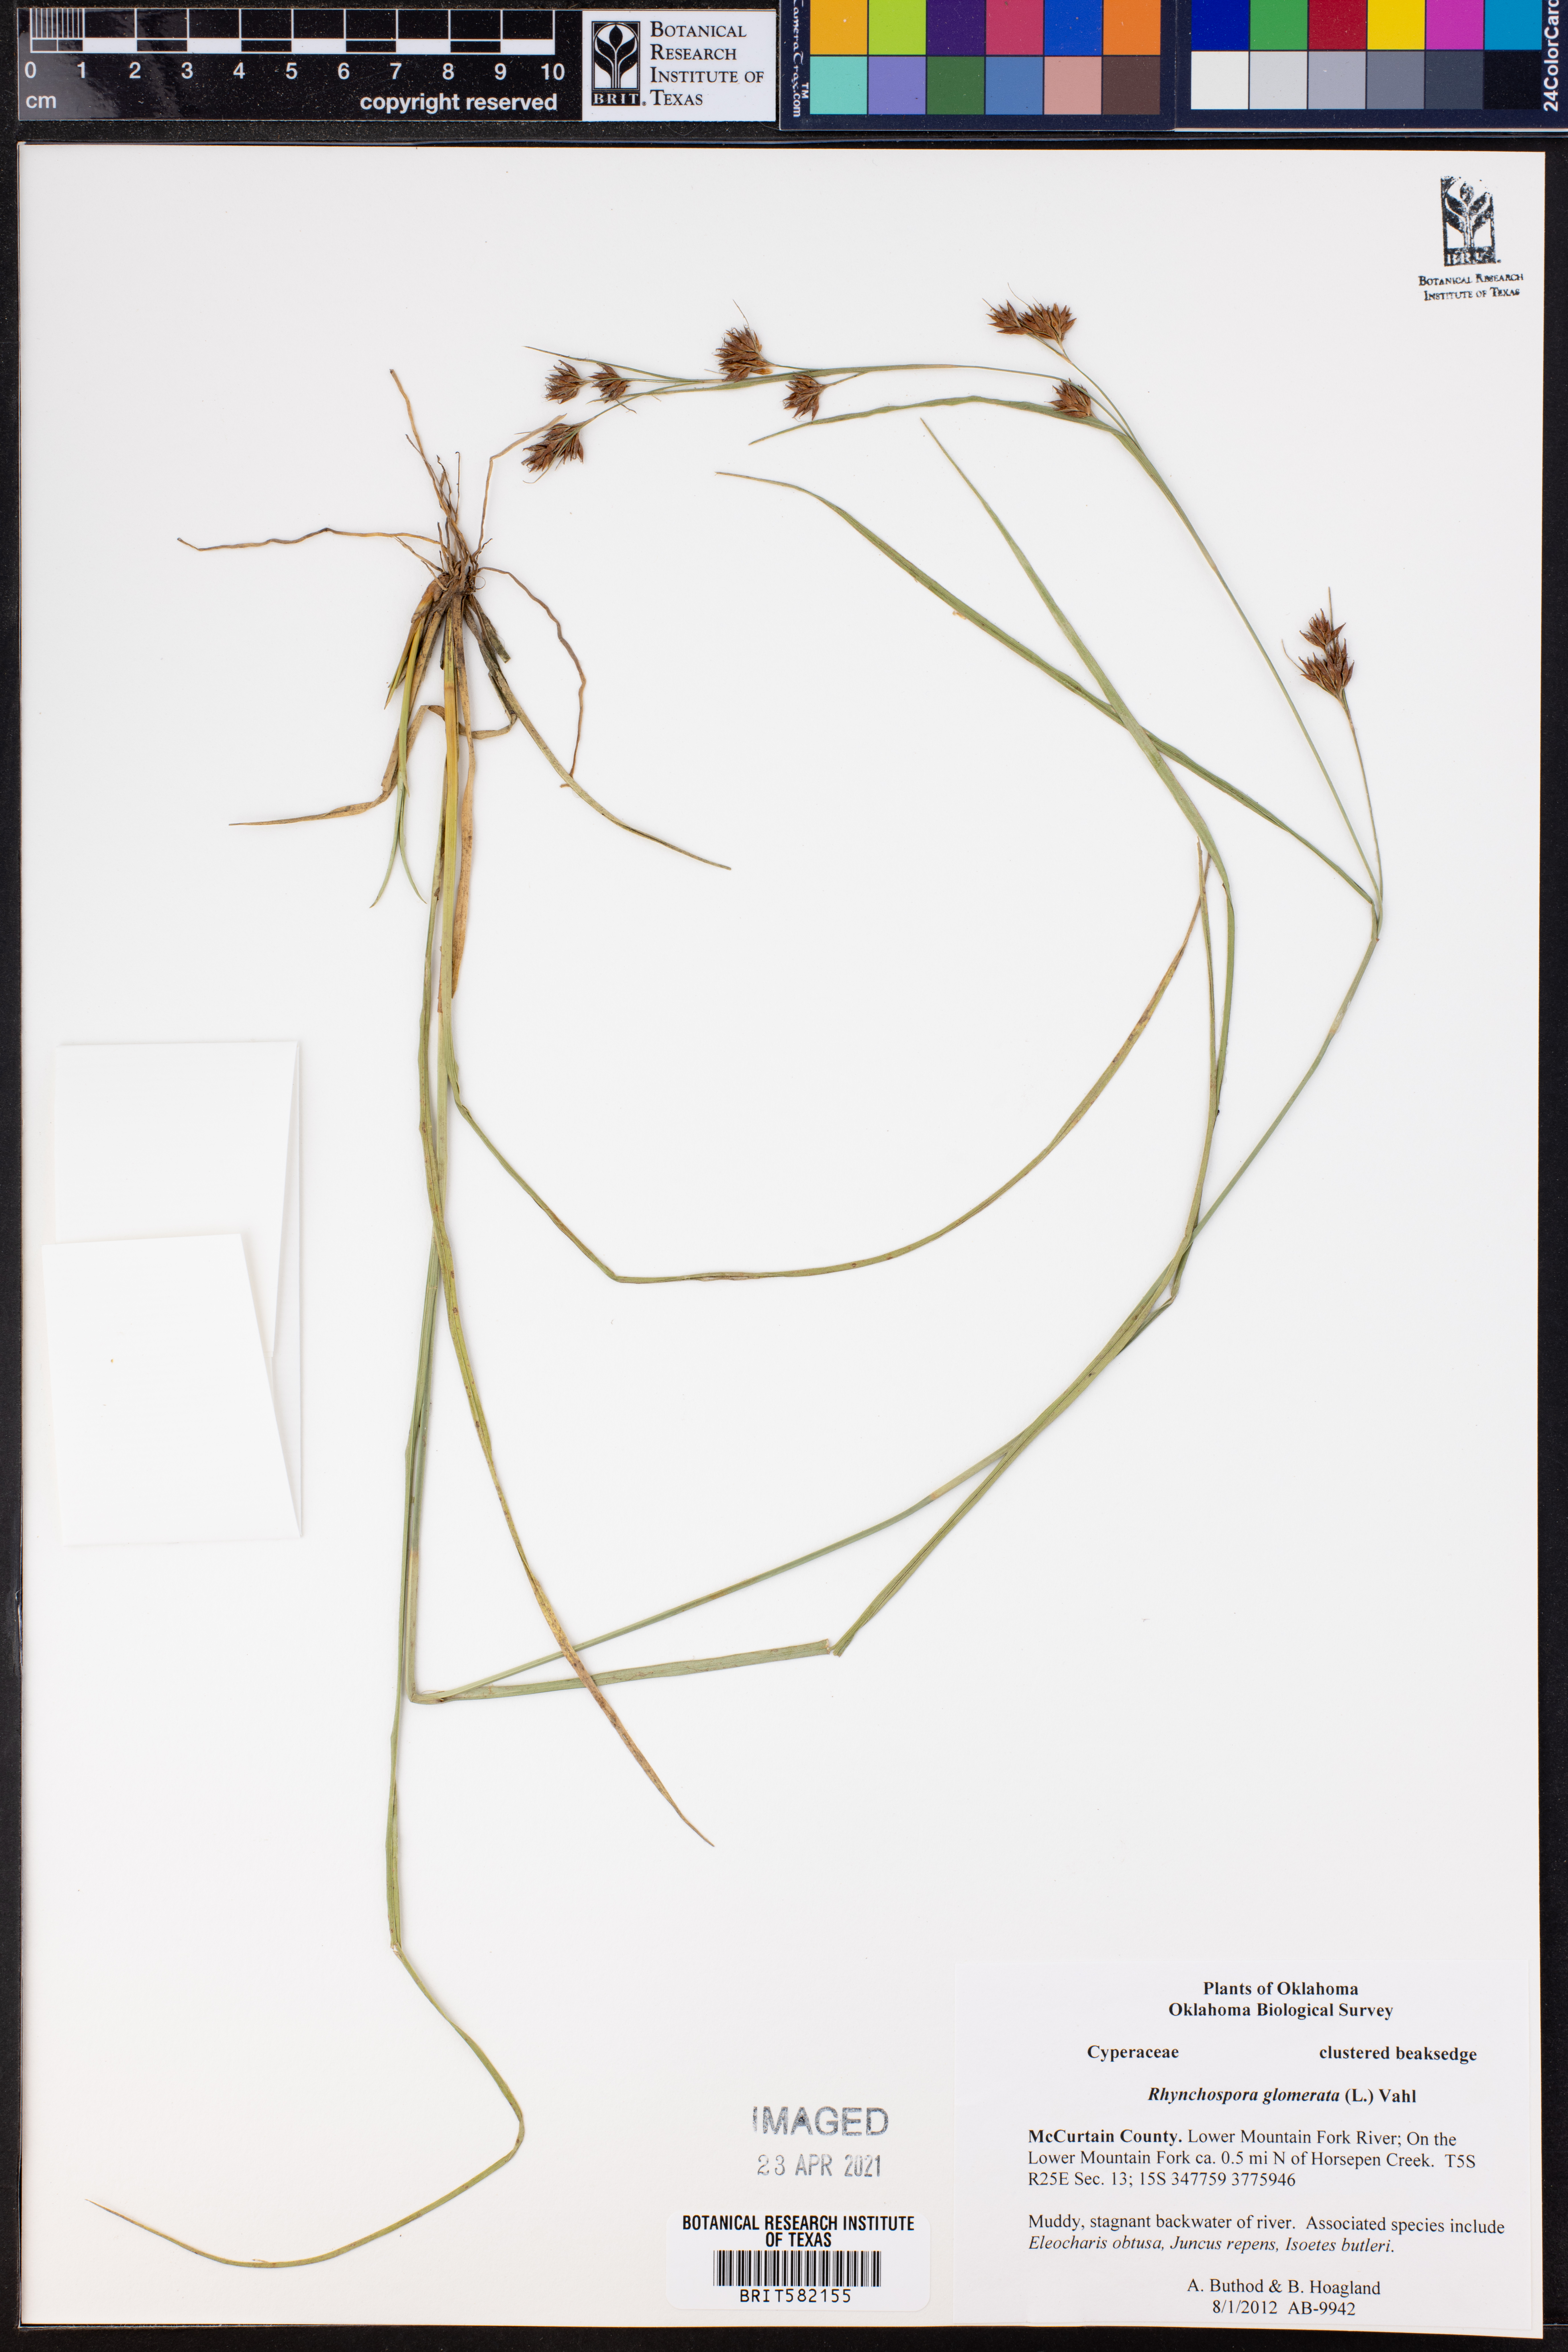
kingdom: Plantae
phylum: Tracheophyta
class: Liliopsida
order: Poales
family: Cyperaceae
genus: Rhynchospora
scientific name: Rhynchospora glomerata
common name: Cluster beak sedge
